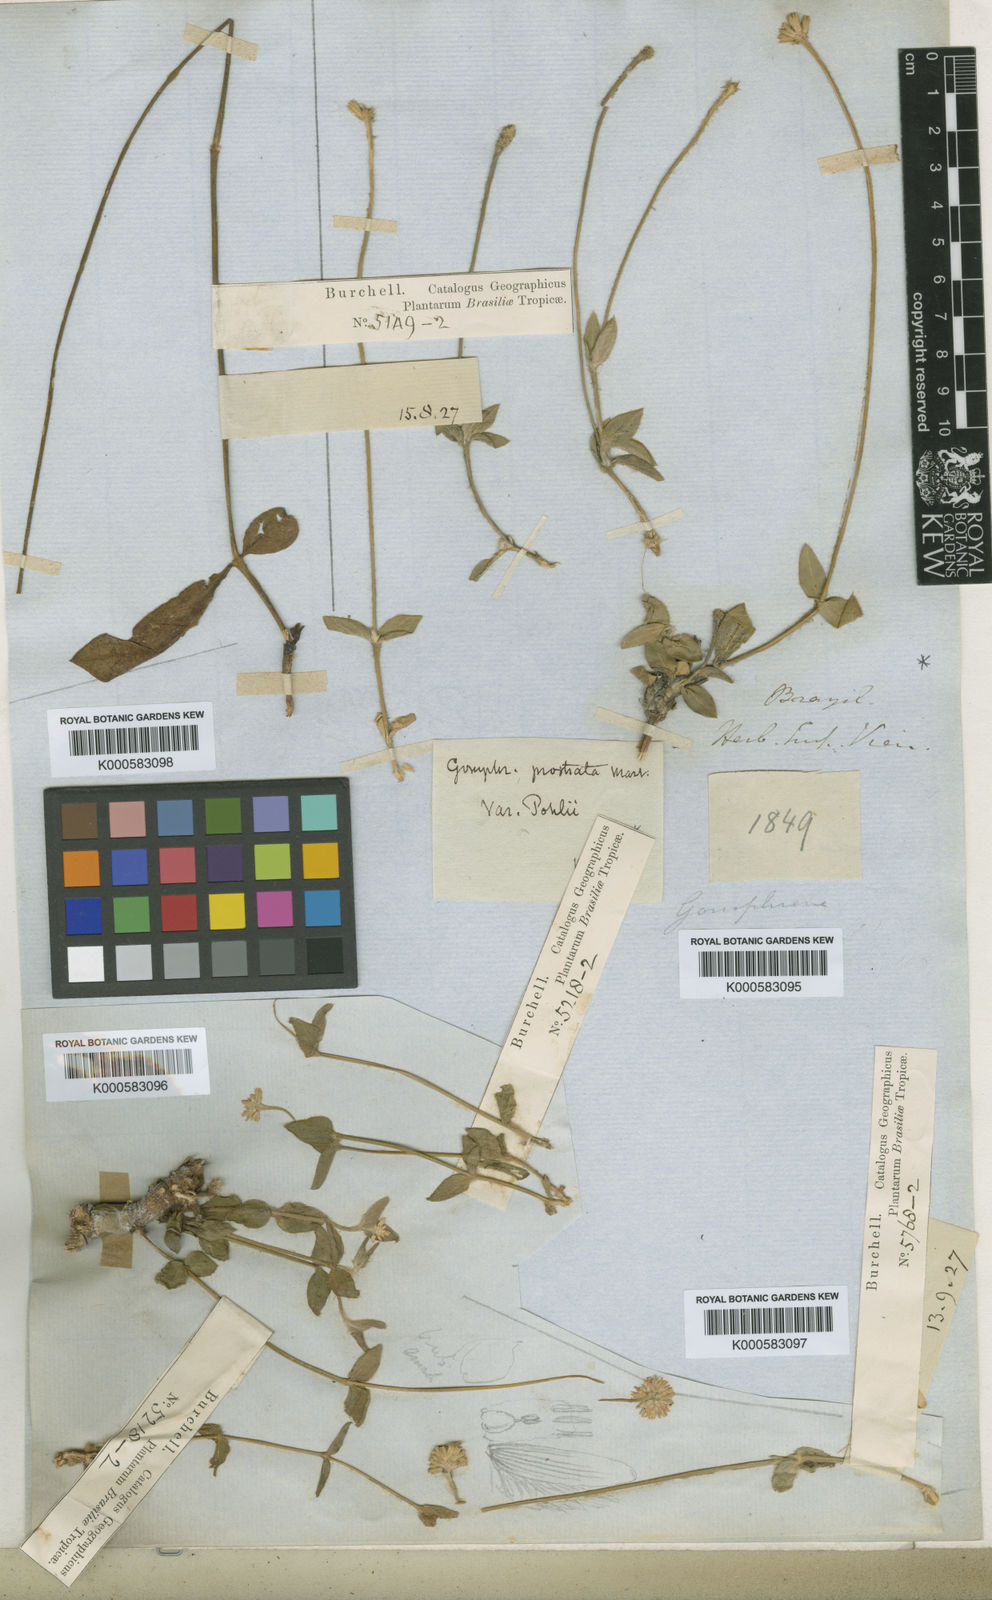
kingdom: Plantae
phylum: Tracheophyta
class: Magnoliopsida
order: Caryophyllales
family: Amaranthaceae
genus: Gomphrena
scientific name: Gomphrena serrata
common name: Arrasa con todo
